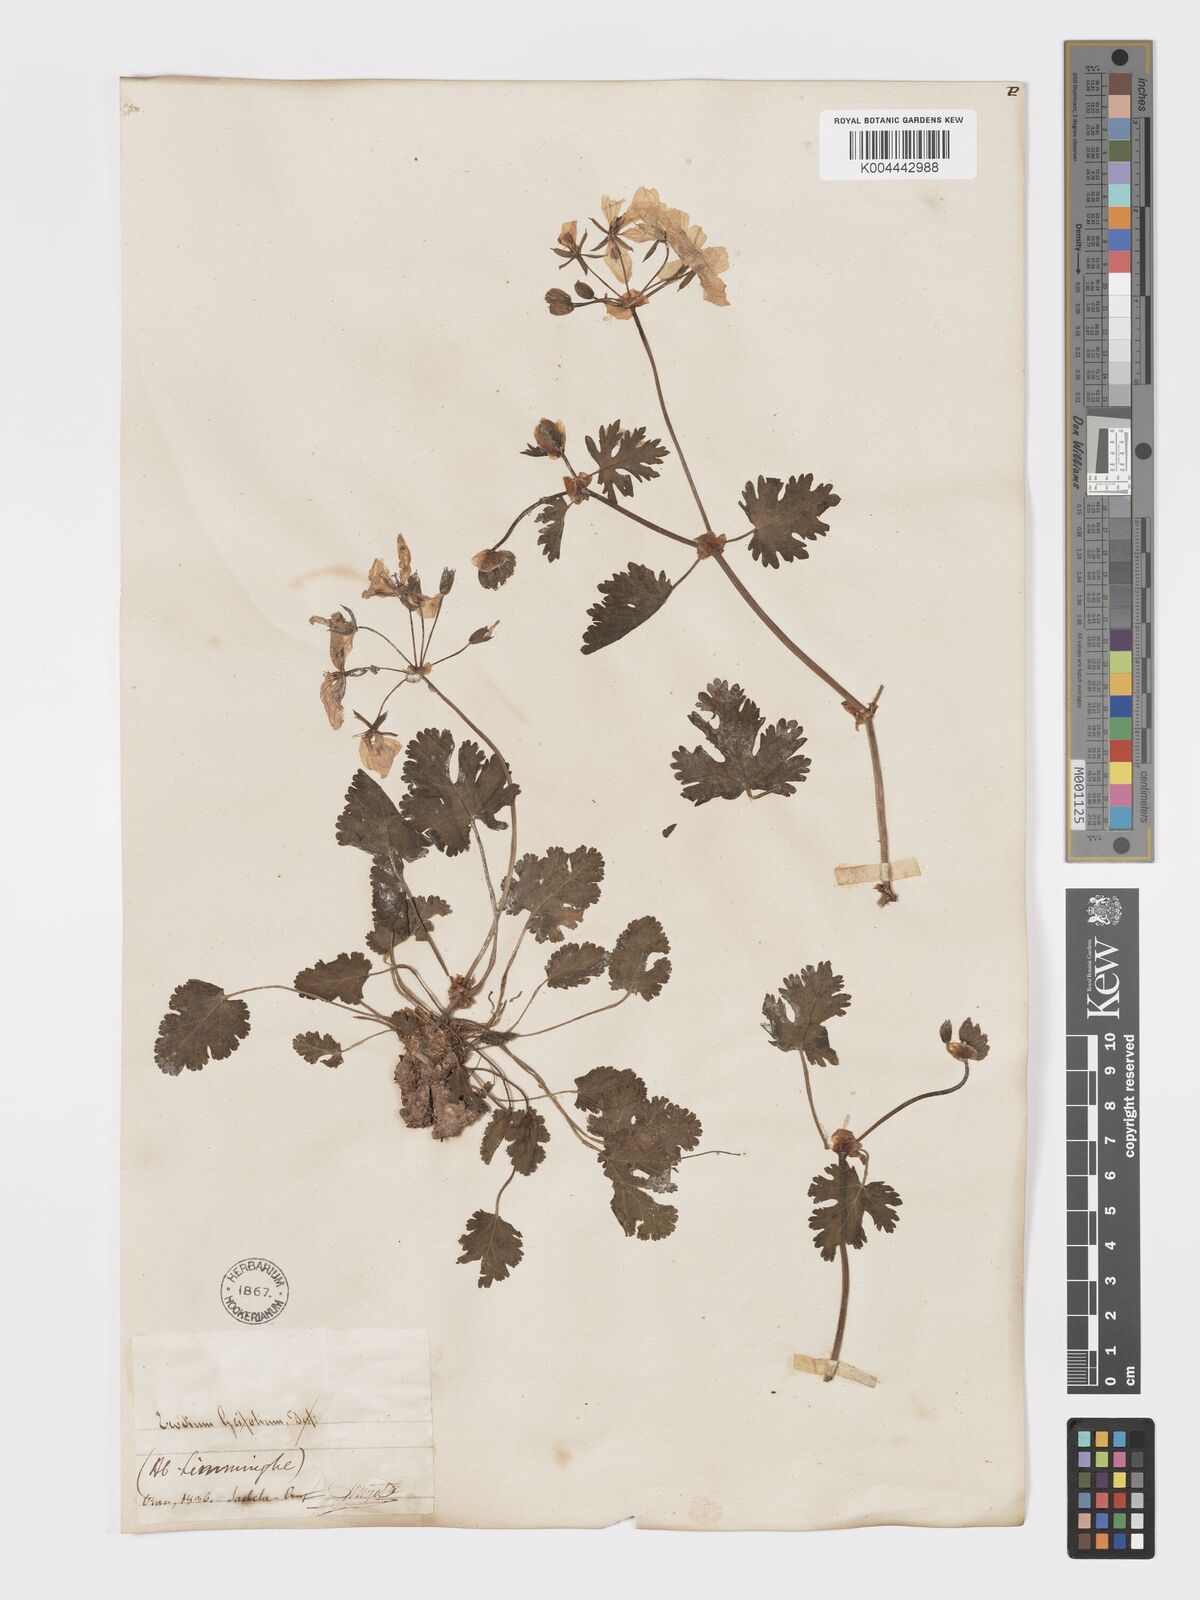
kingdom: Plantae
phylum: Tracheophyta
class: Magnoliopsida
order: Geraniales
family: Geraniaceae
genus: Erodium
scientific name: Erodium munbyanum
